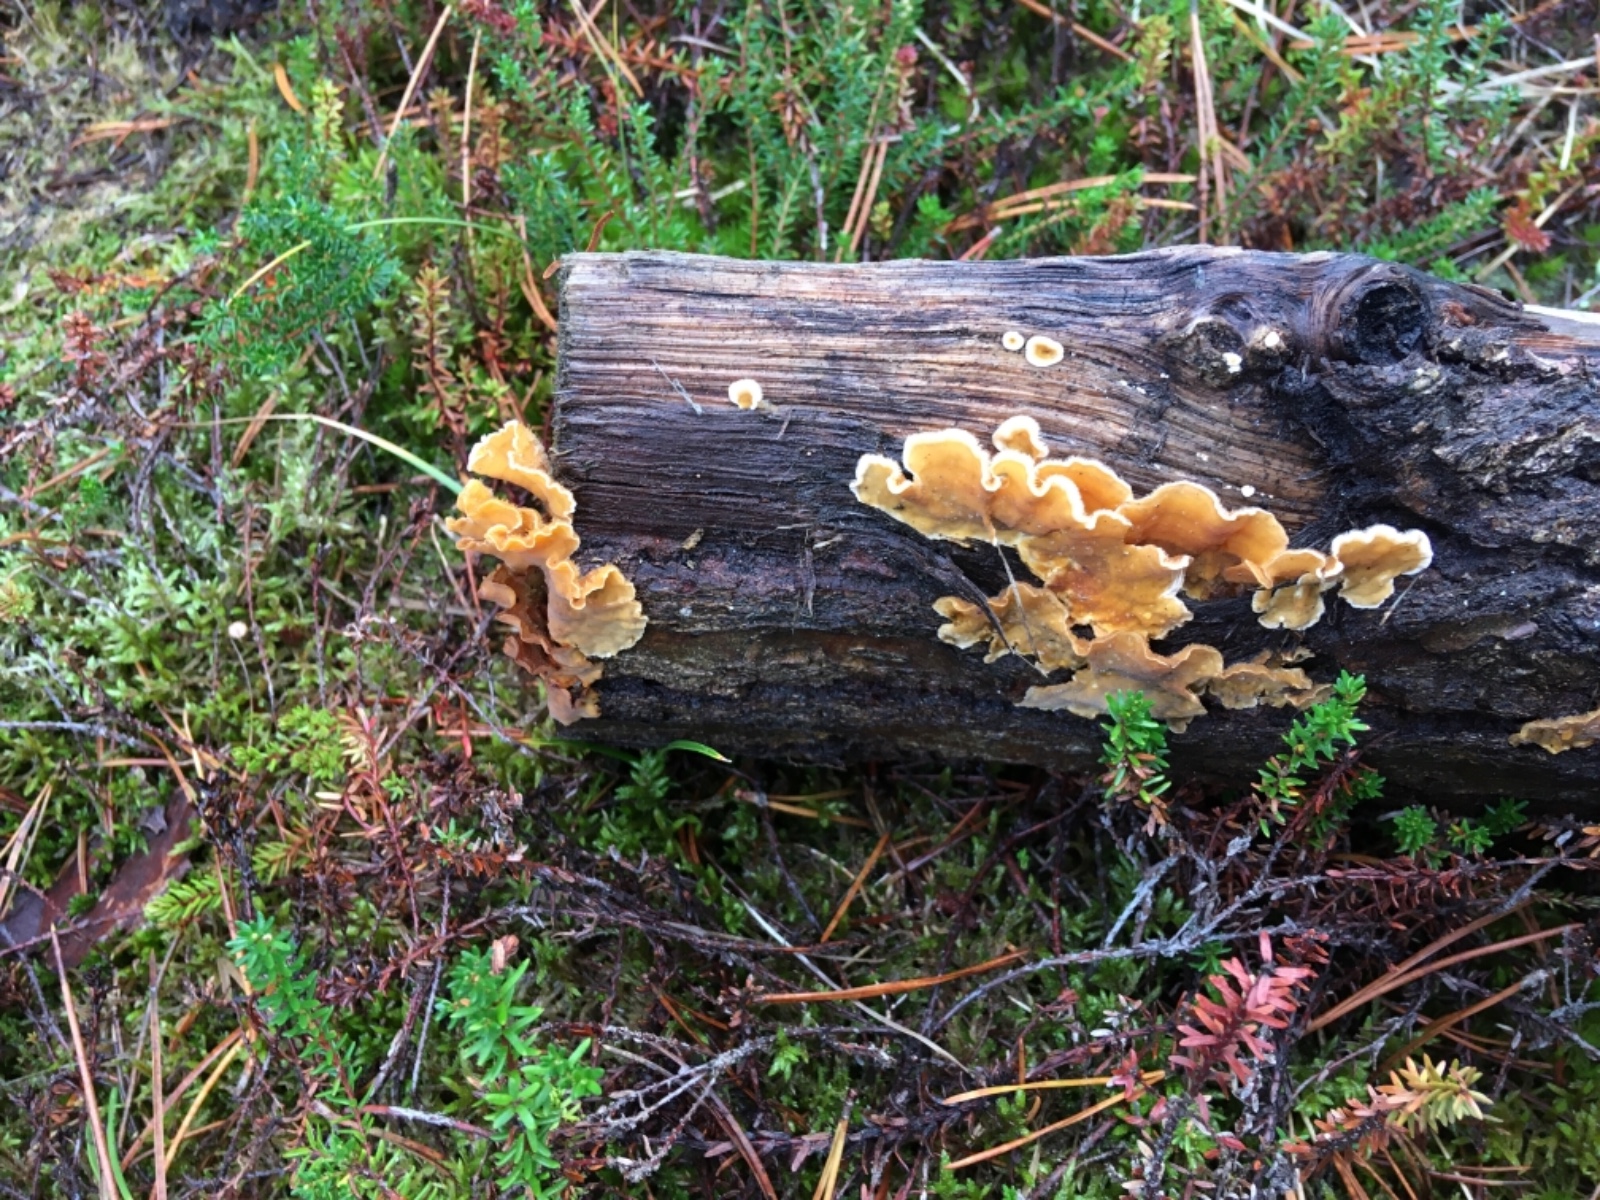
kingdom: Fungi
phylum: Basidiomycota
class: Agaricomycetes
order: Russulales
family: Stereaceae
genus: Stereum
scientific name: Stereum hirsutum
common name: håret lædersvamp
